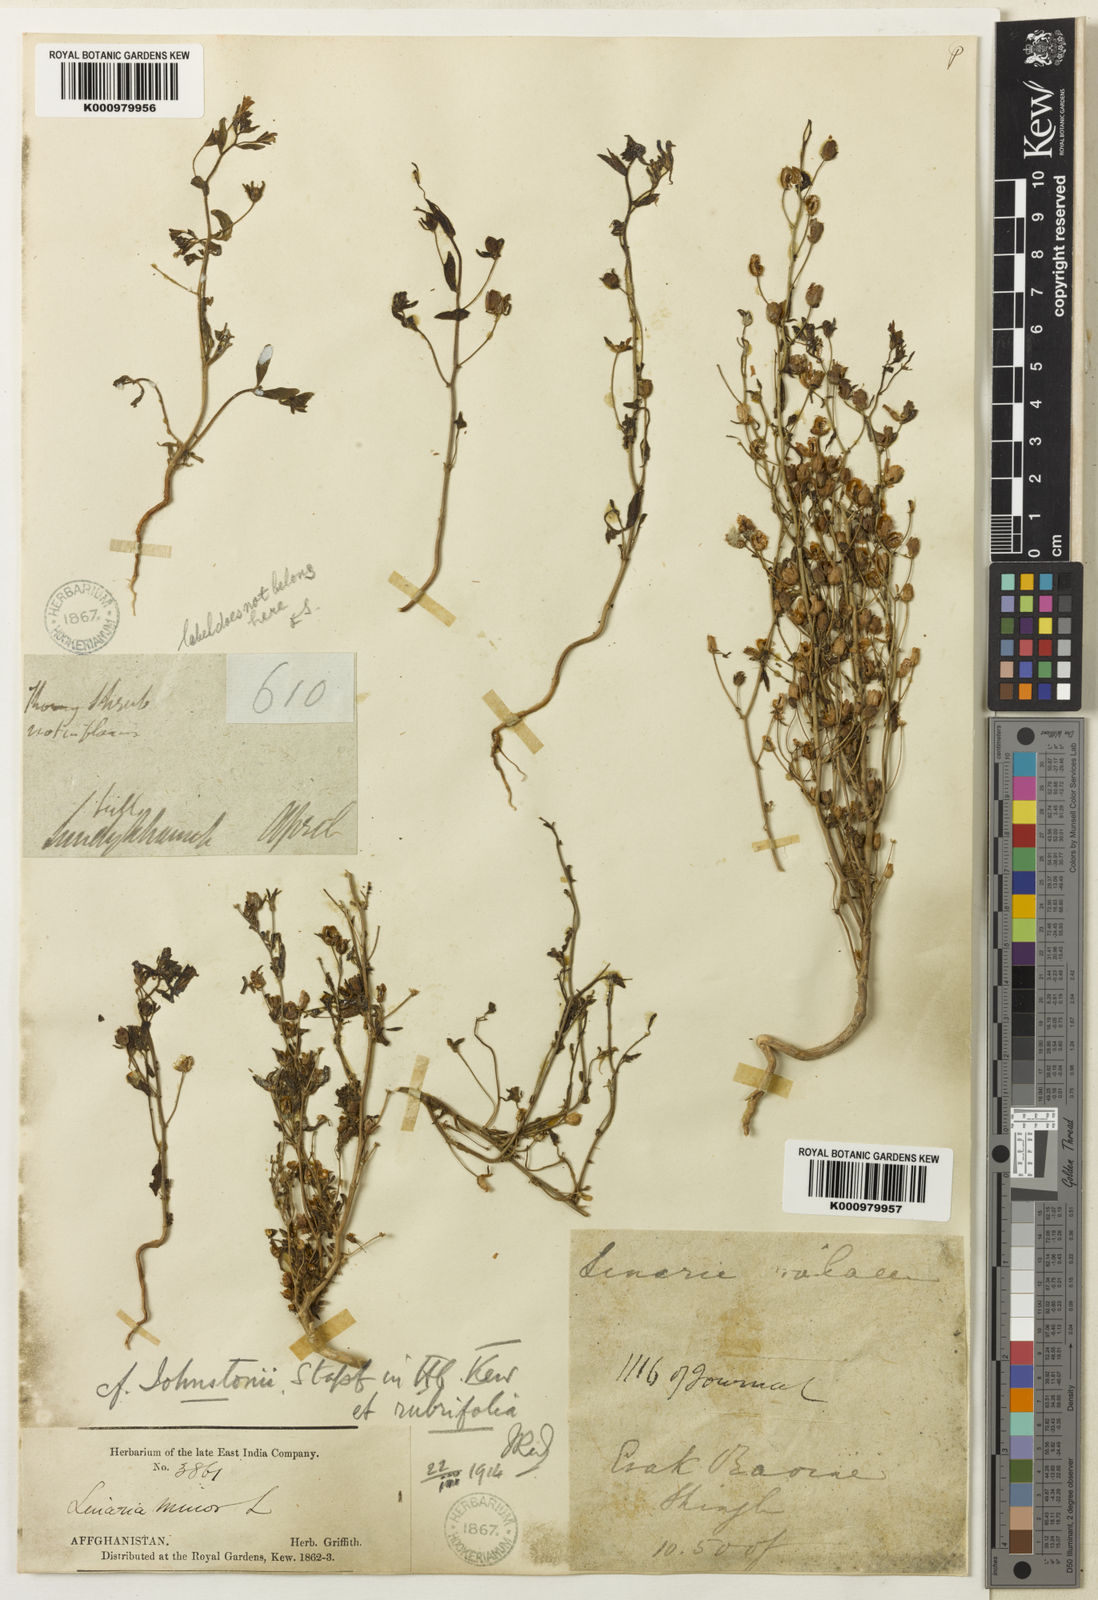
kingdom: Plantae
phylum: Tracheophyta
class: Magnoliopsida
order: Lamiales
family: Plantaginaceae
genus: Chaenorhinum
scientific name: Chaenorhinum rubrifolium
